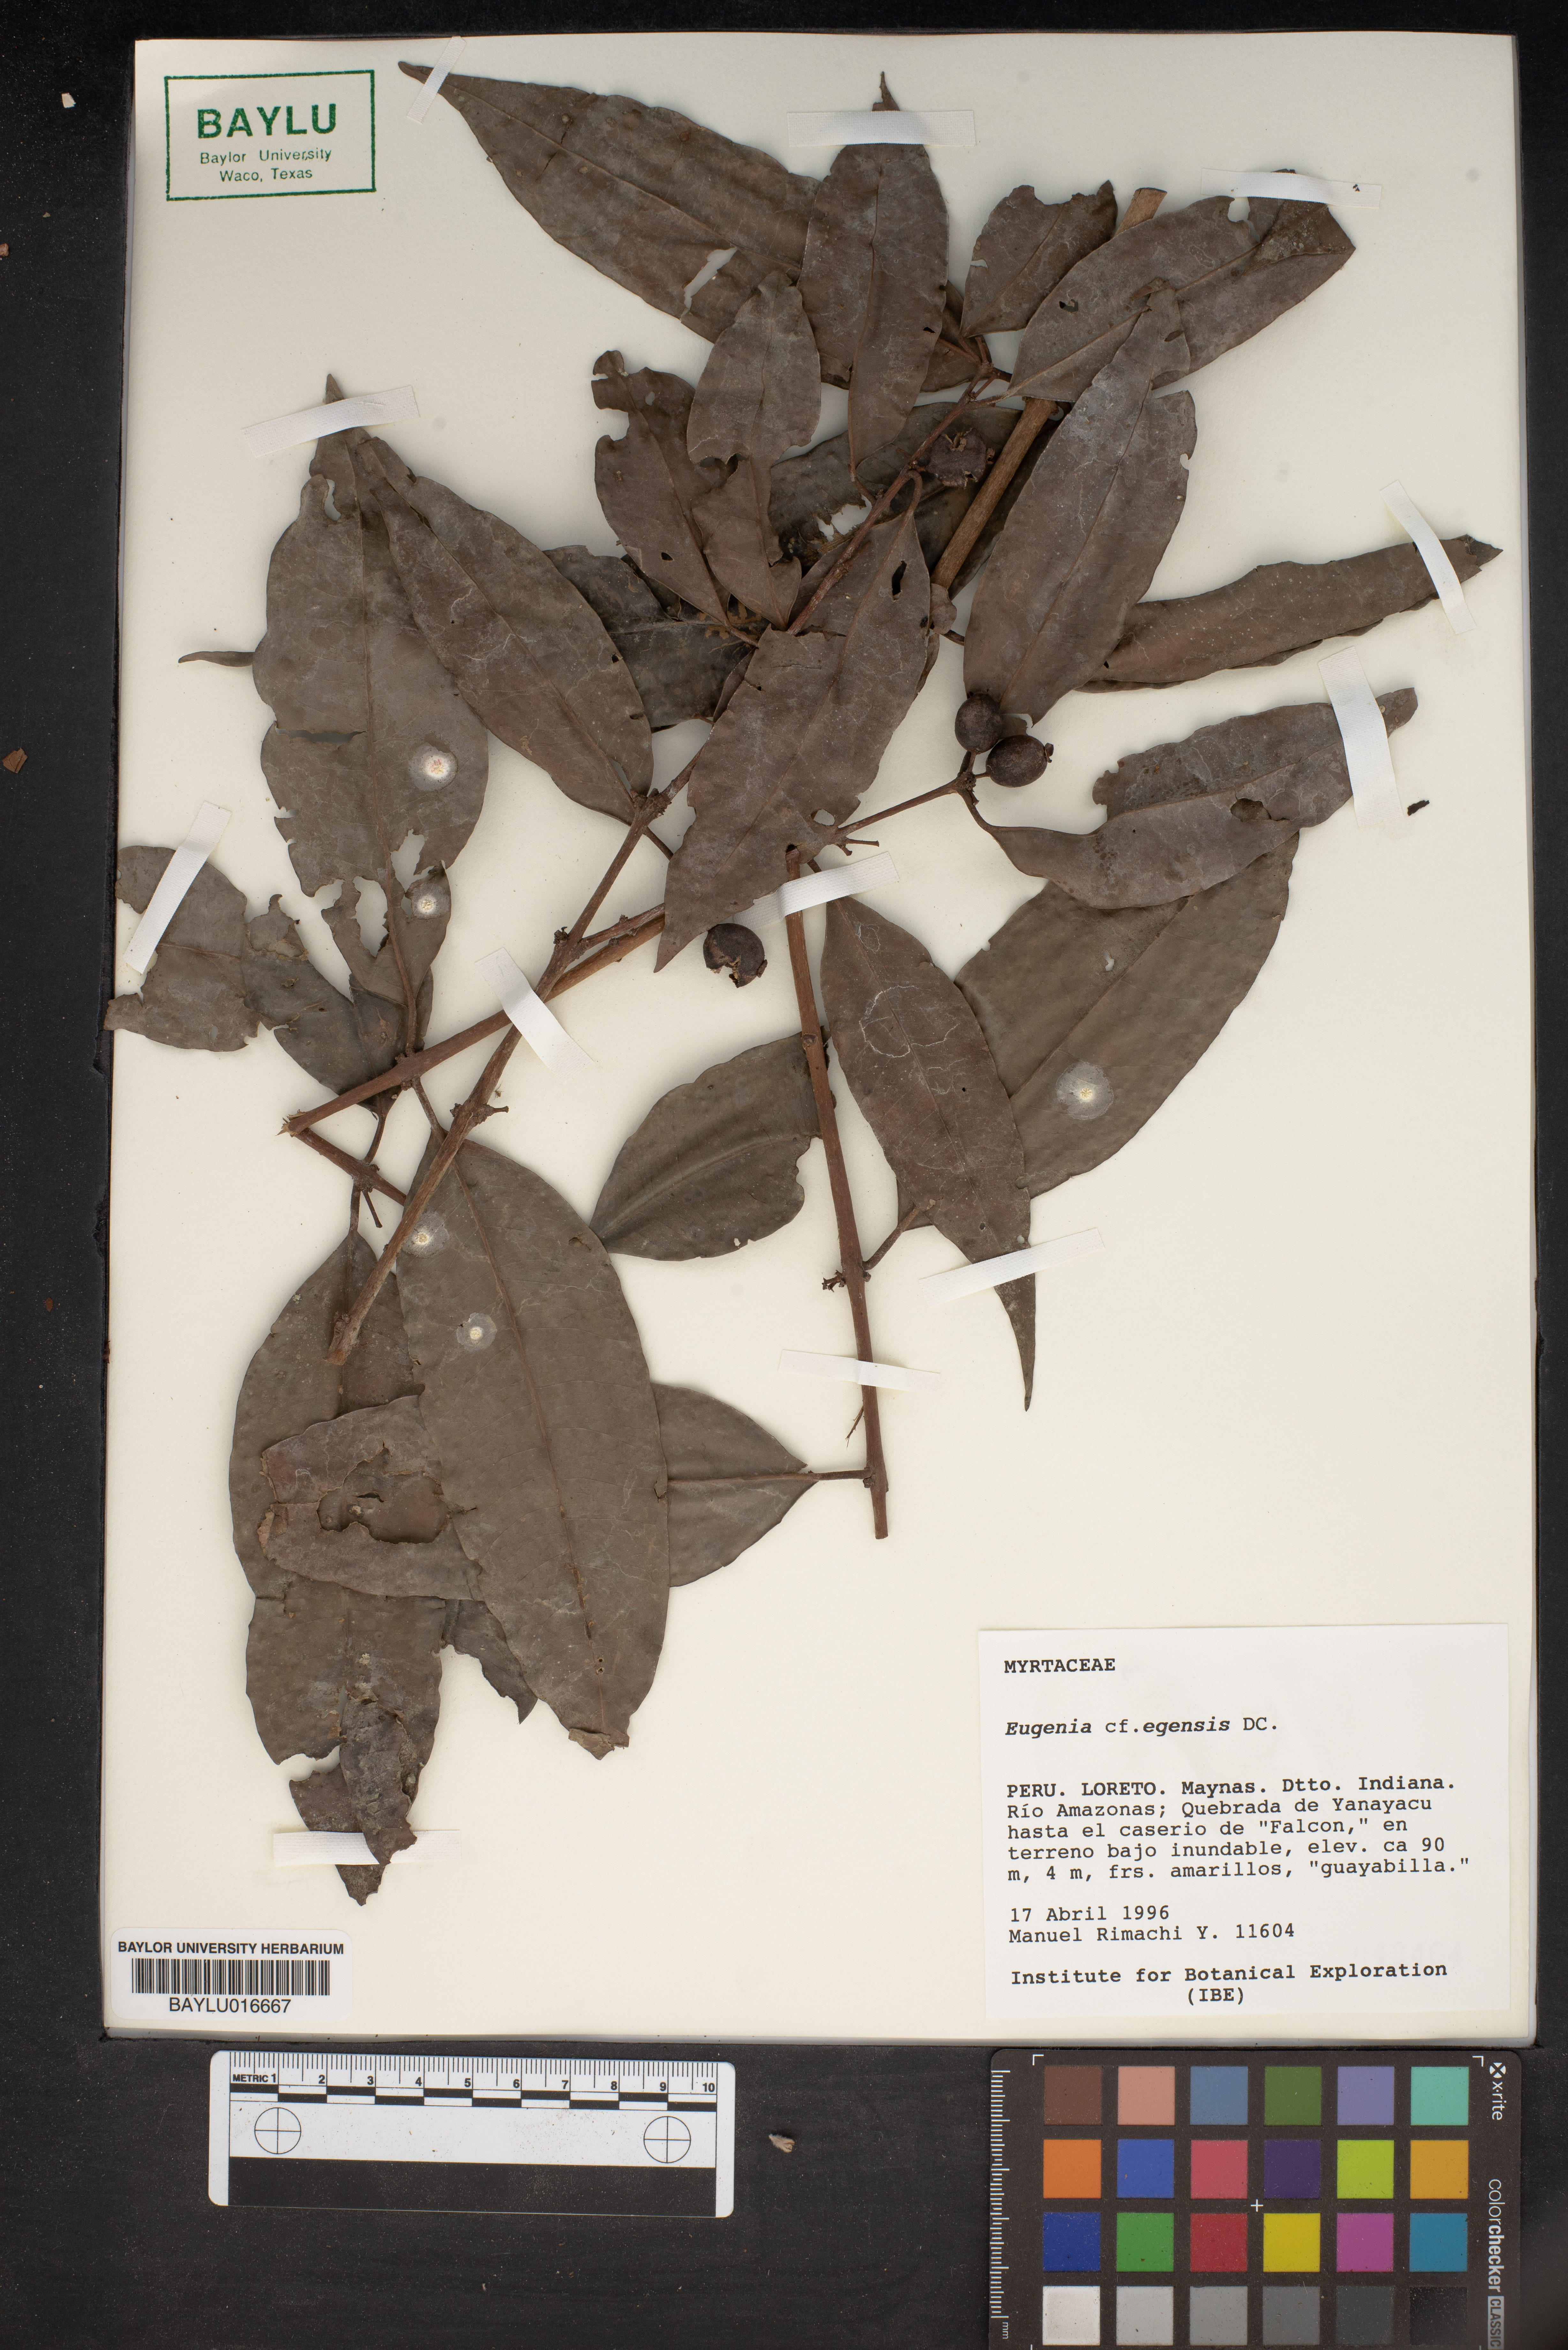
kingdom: Plantae
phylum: Tracheophyta
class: Magnoliopsida
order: Myrtales
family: Myrtaceae
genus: Eugenia
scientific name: Eugenia egensis
